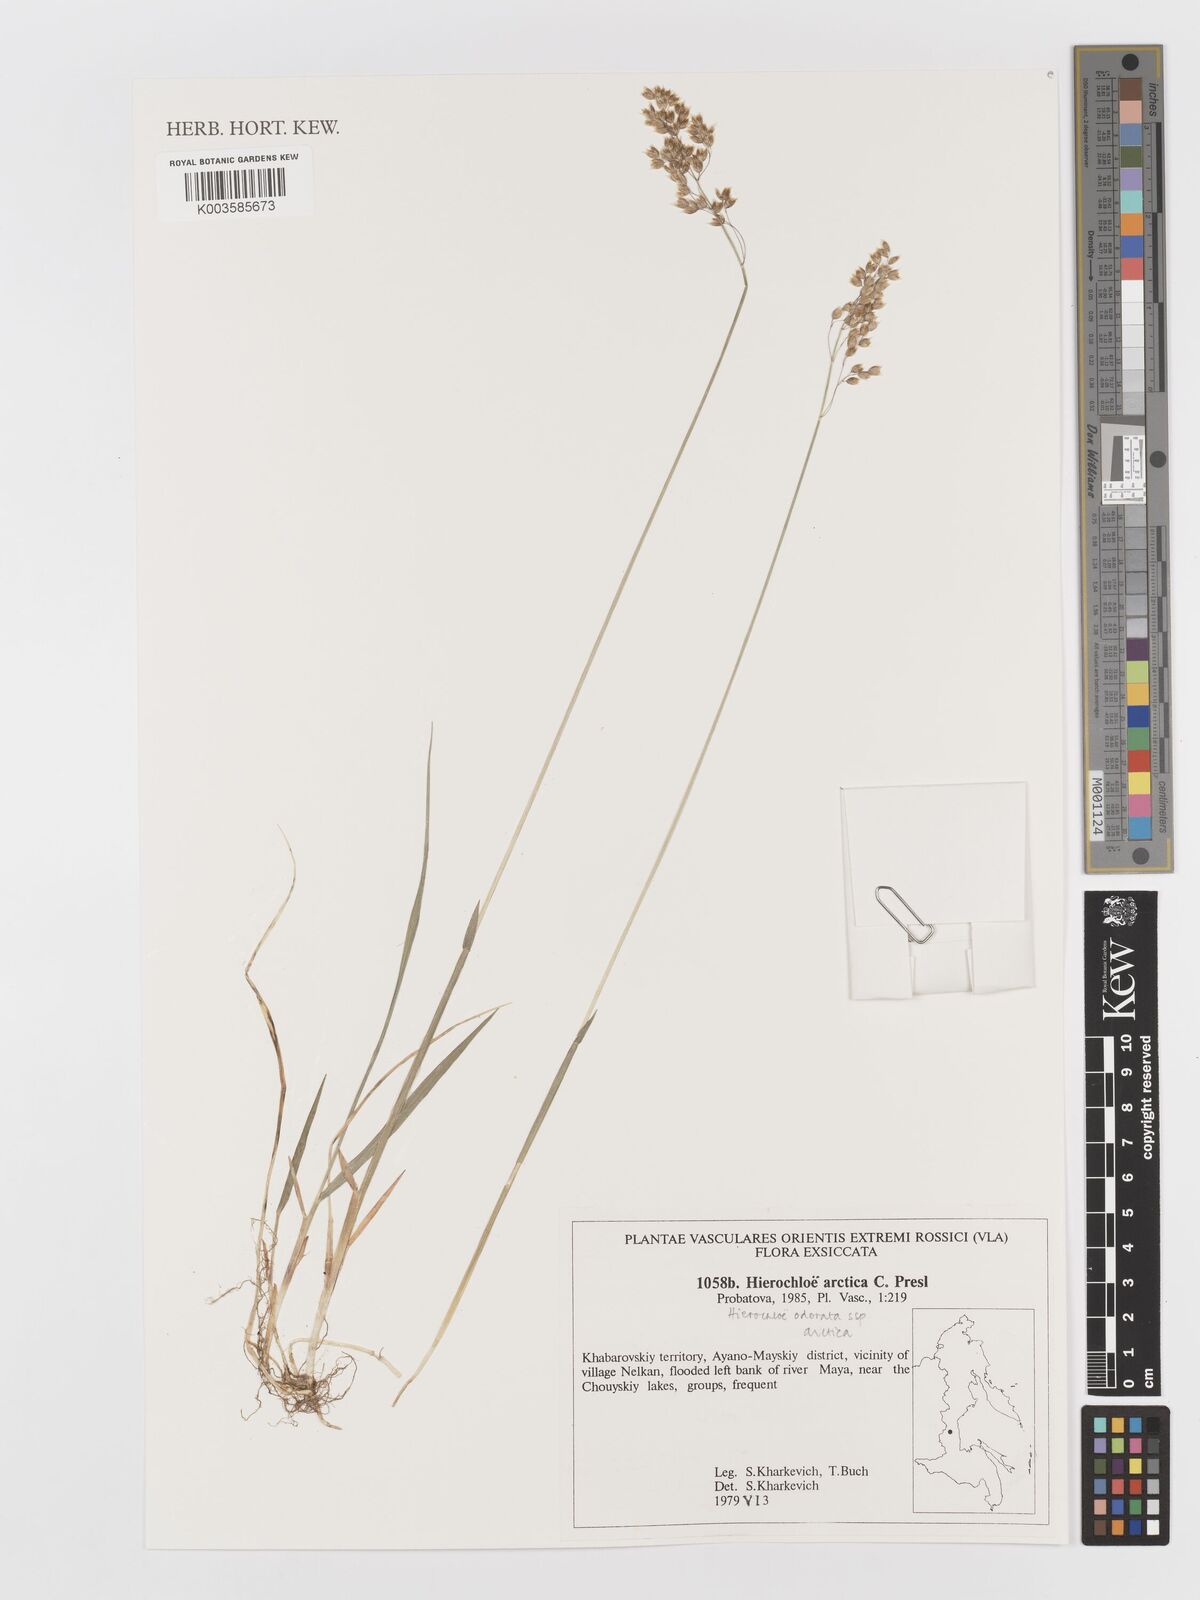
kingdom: Plantae
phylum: Tracheophyta
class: Liliopsida
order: Poales
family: Poaceae
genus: Anthoxanthum
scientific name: Anthoxanthum nitens
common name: Holy grass
